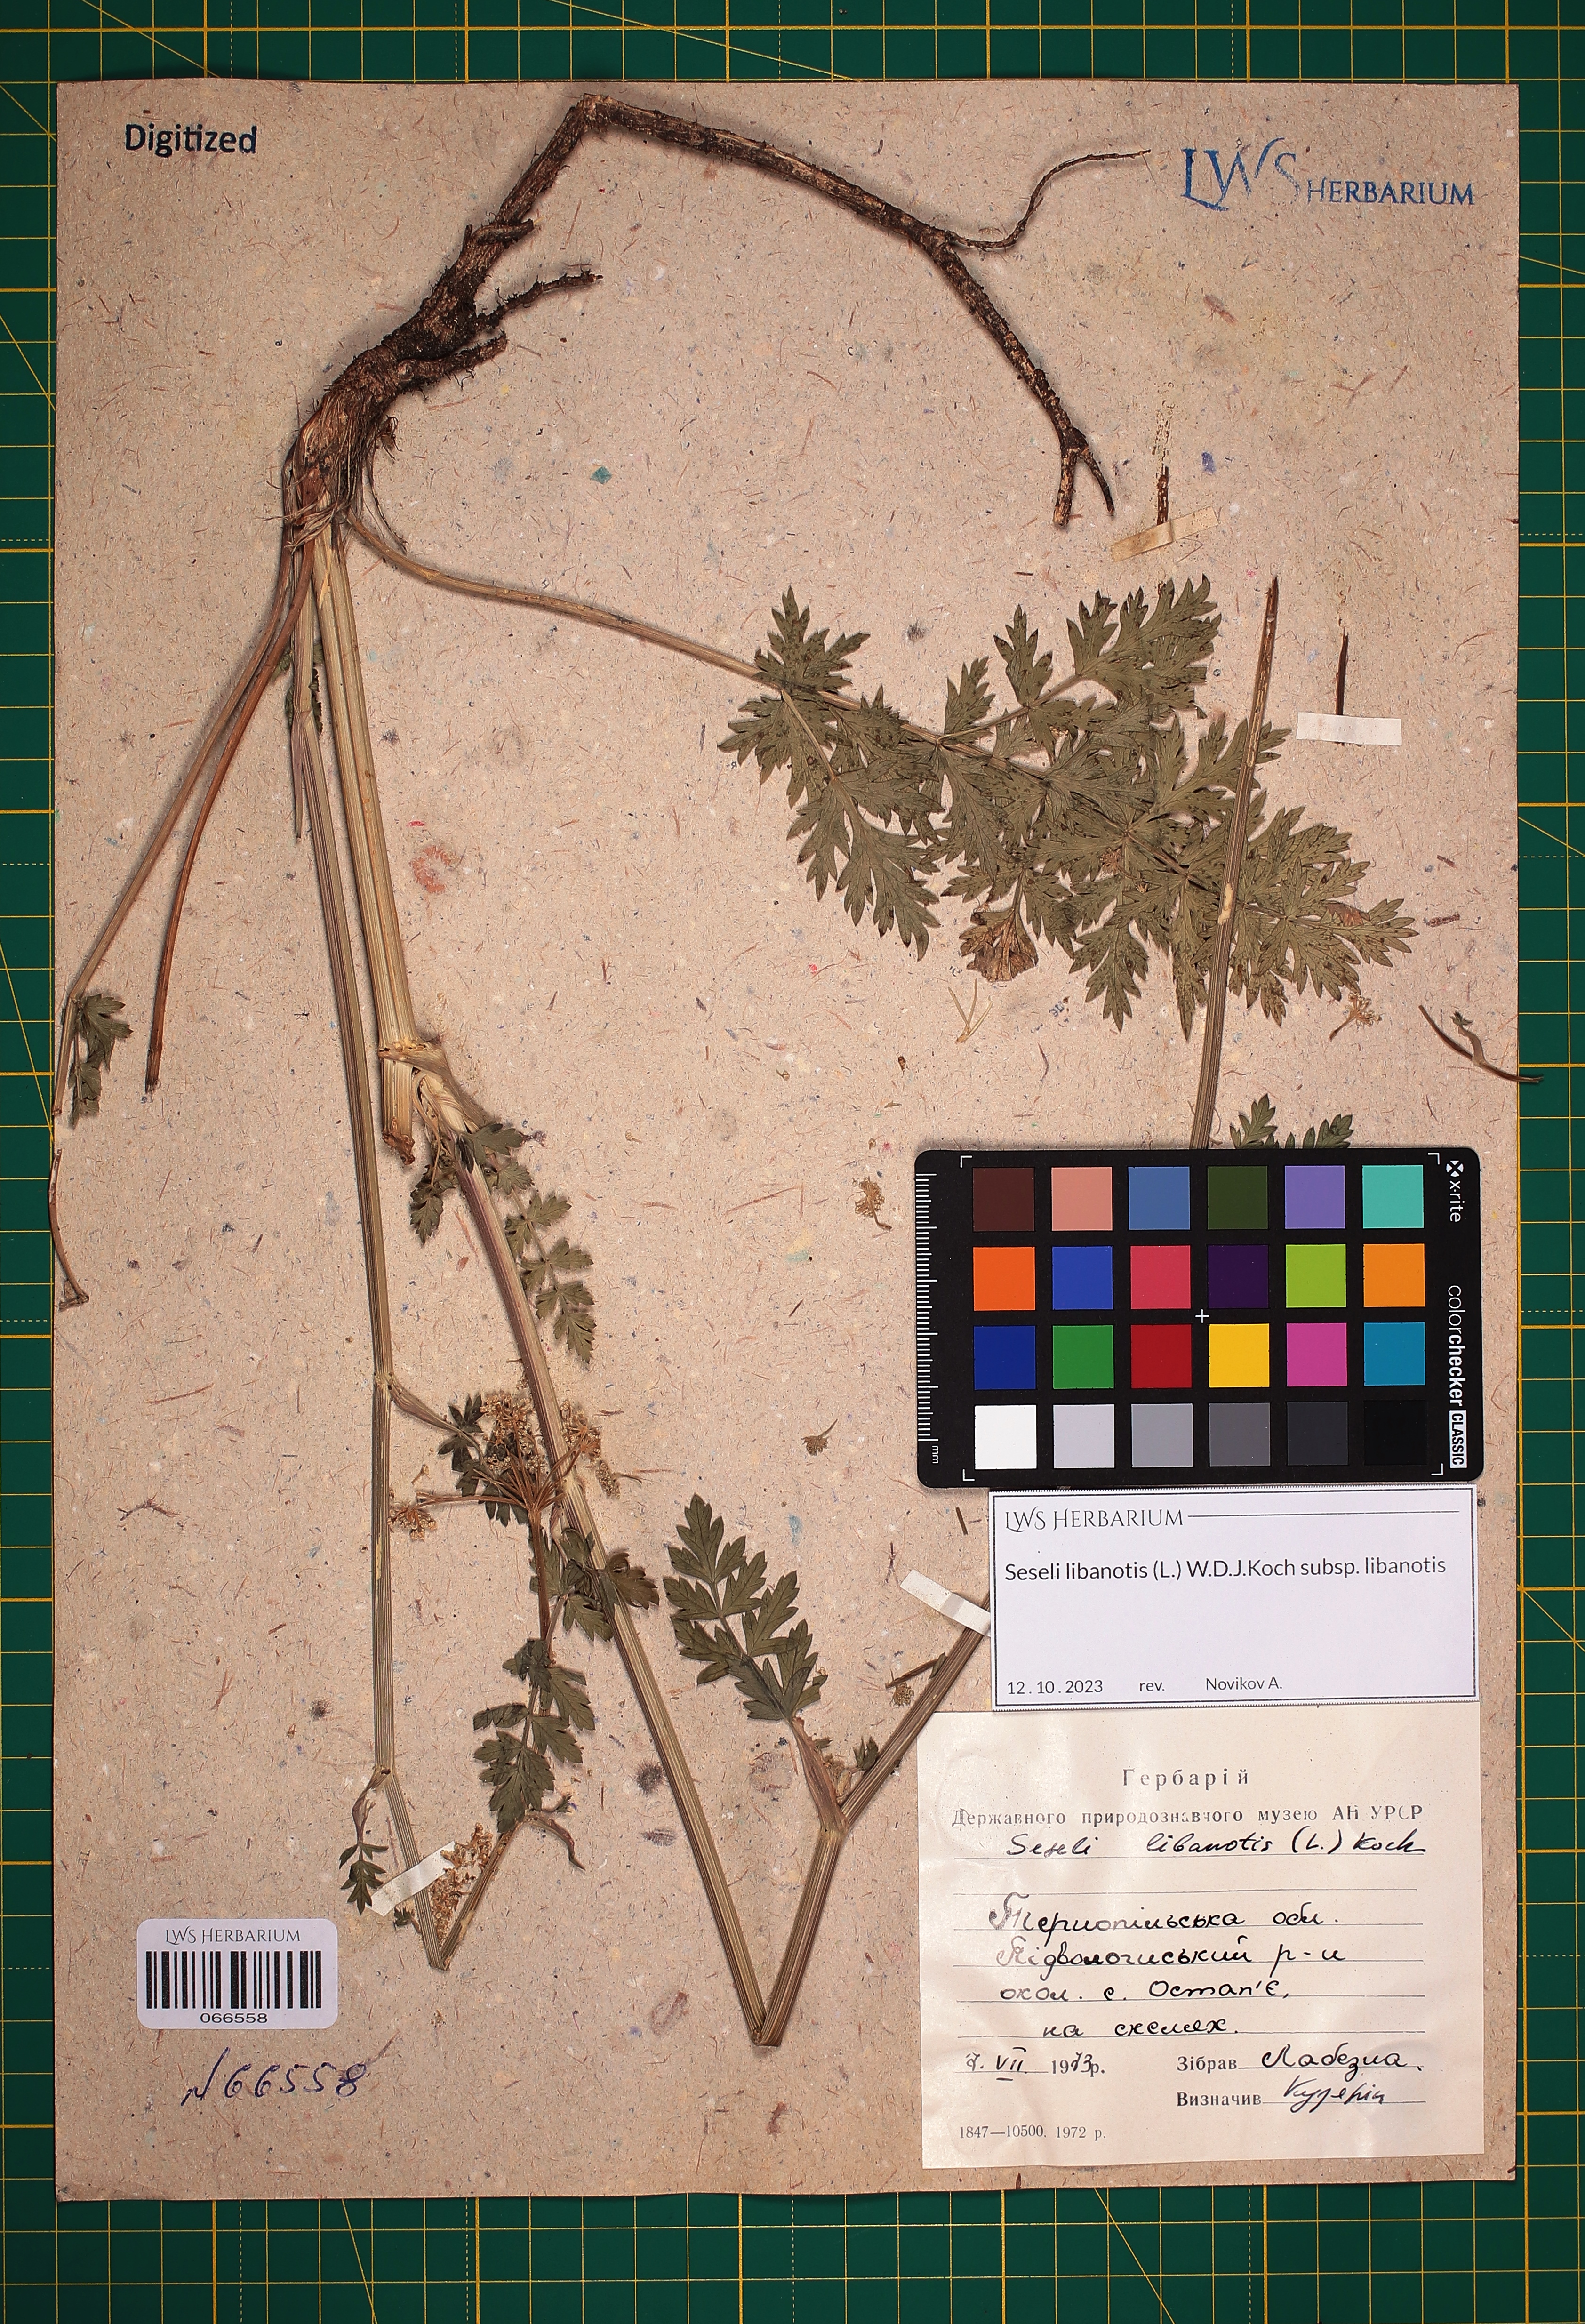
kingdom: Plantae
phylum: Tracheophyta
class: Magnoliopsida
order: Apiales
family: Apiaceae
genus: Seseli
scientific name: Seseli libanotis
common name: Mooncarrot
